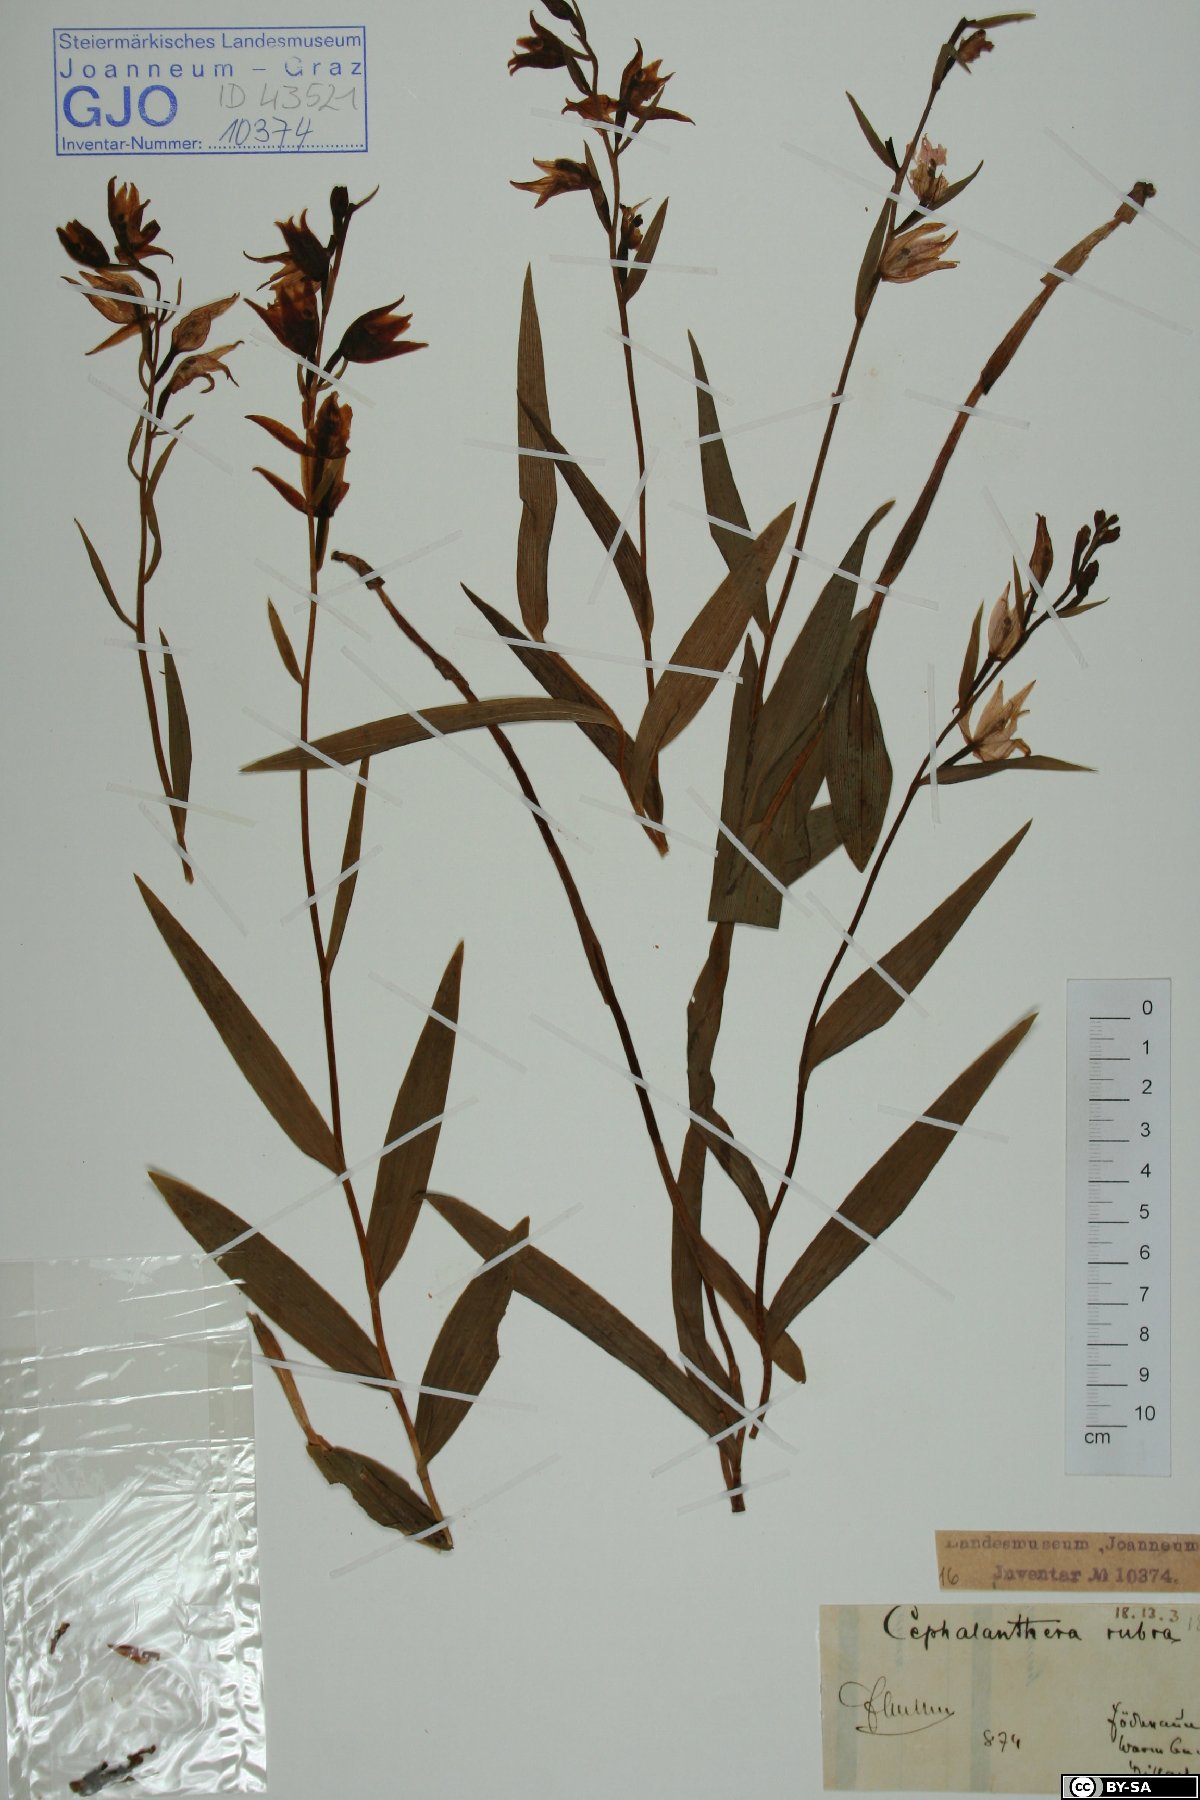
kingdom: Plantae
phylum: Tracheophyta
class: Liliopsida
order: Asparagales
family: Orchidaceae
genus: Cephalanthera
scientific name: Cephalanthera rubra
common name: Red helleborine
